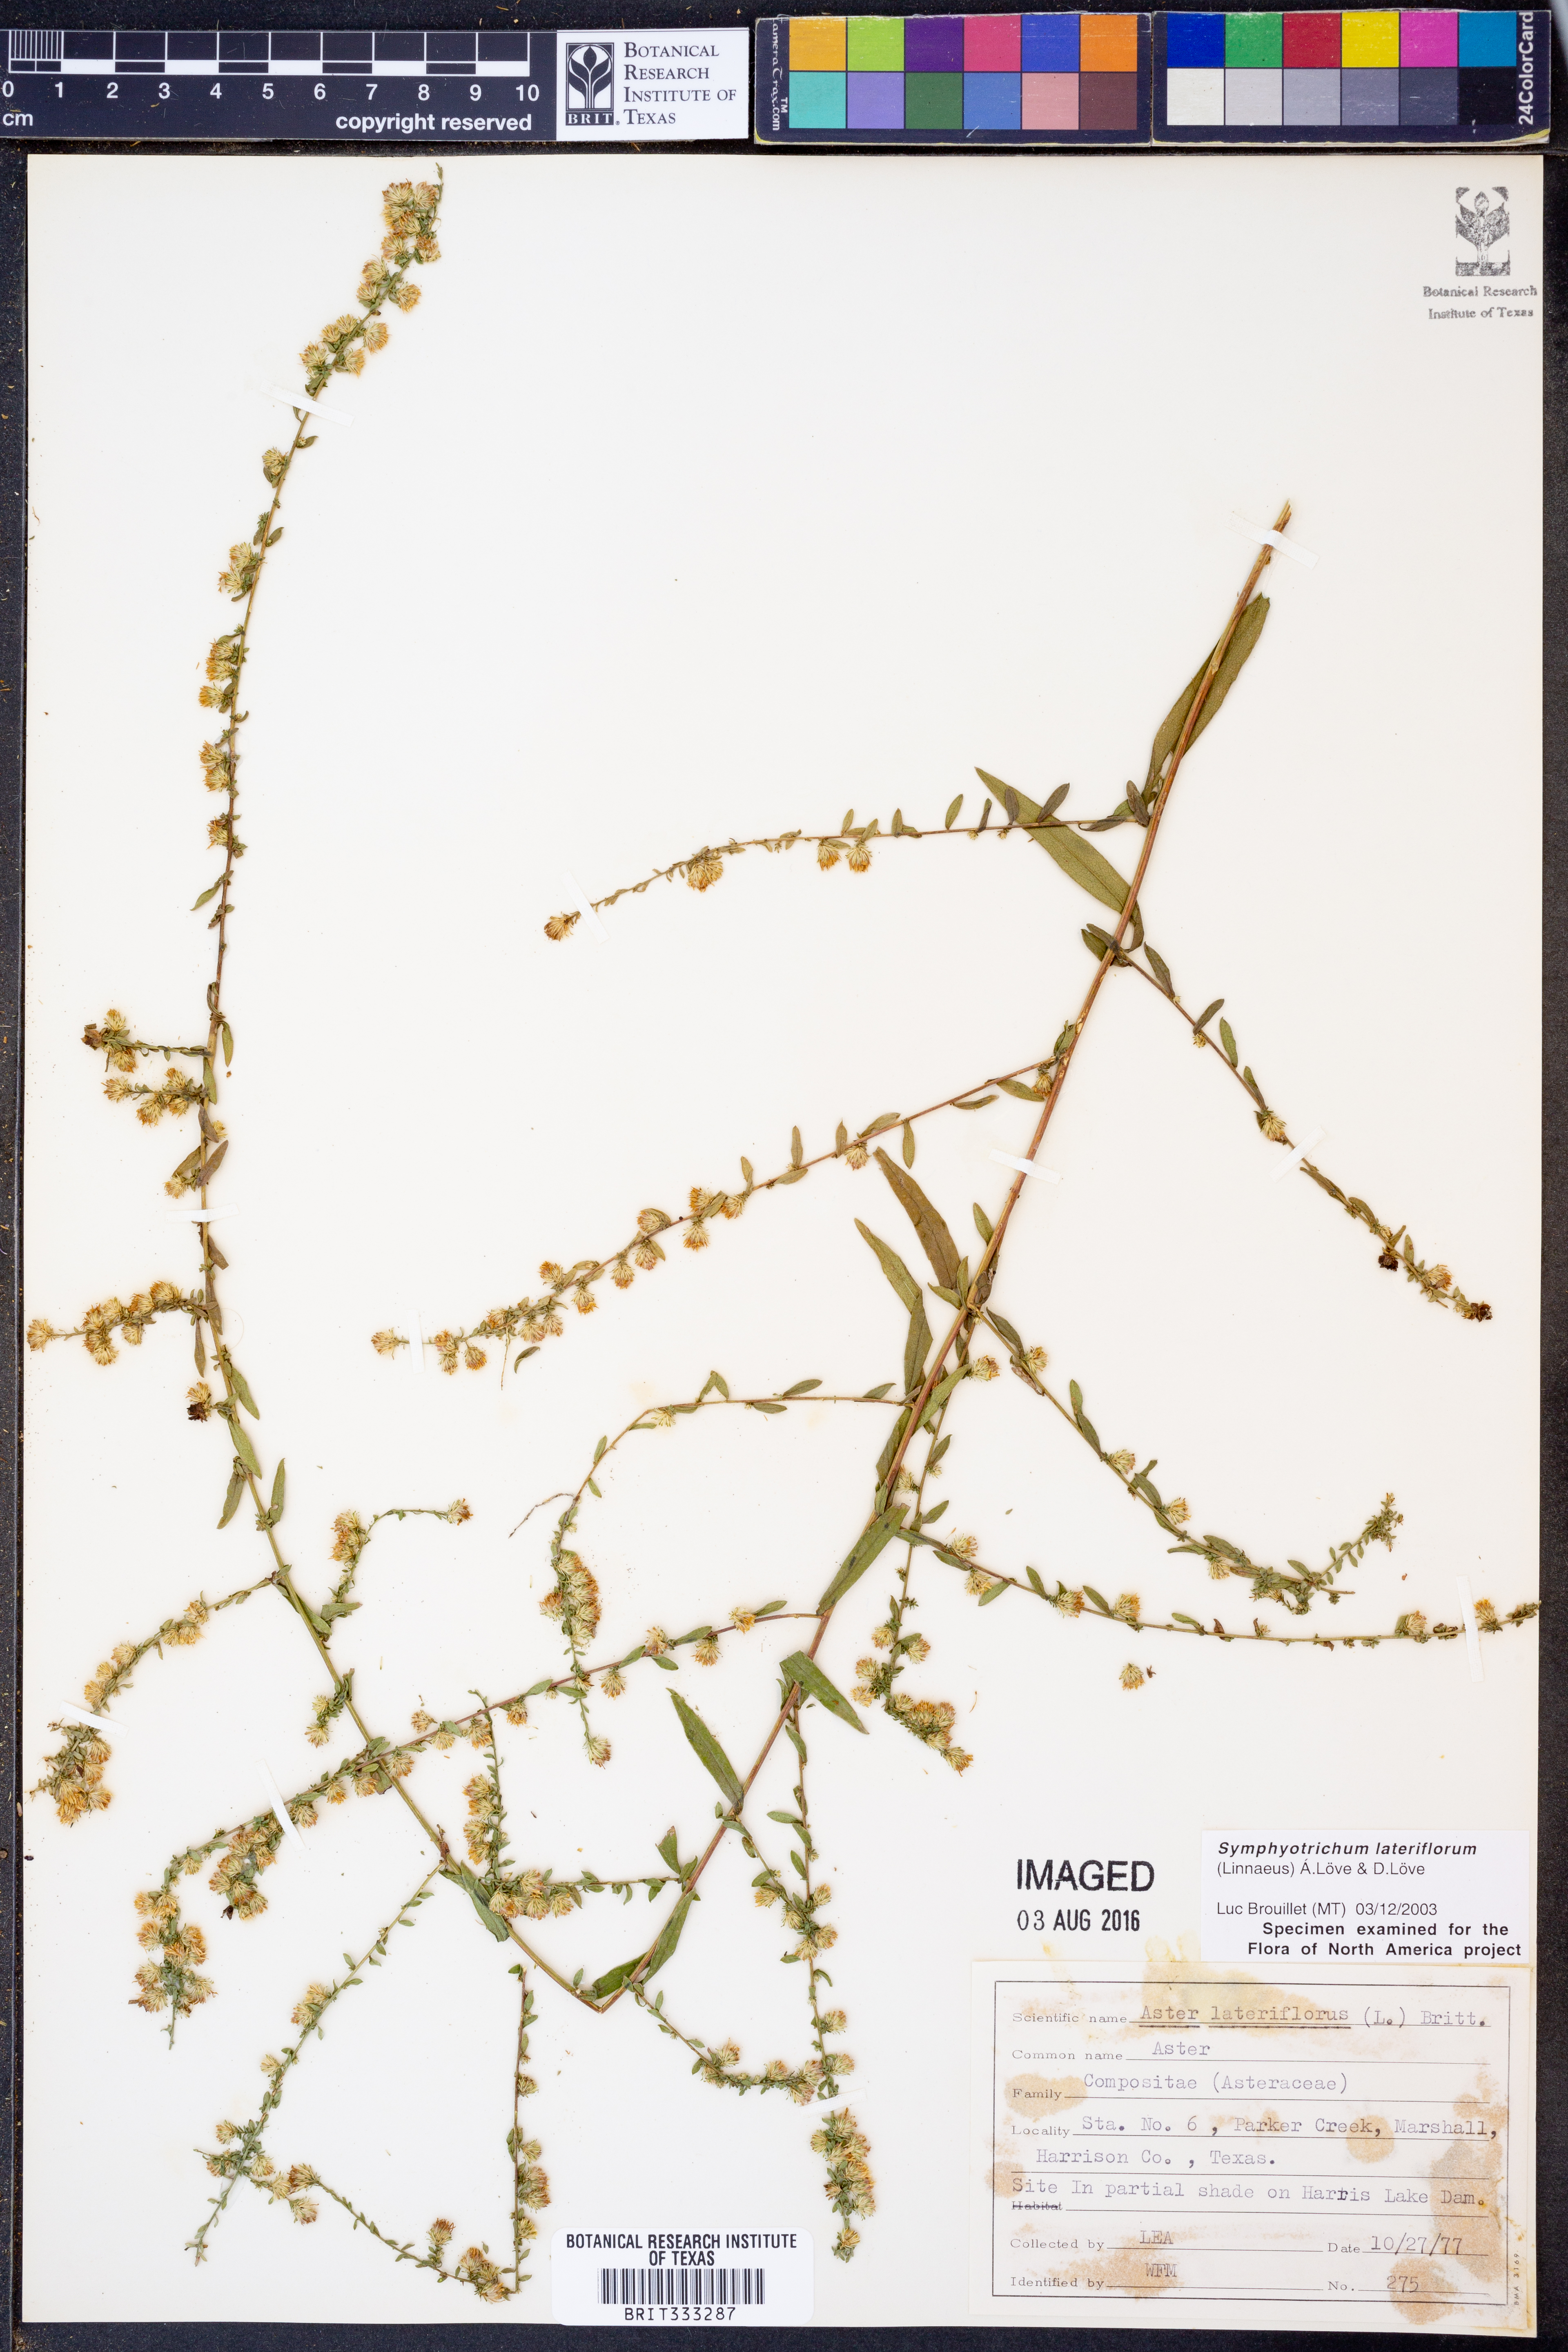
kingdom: Plantae
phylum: Tracheophyta
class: Magnoliopsida
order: Asterales
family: Asteraceae
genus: Symphyotrichum
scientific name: Symphyotrichum lateriflorum
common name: Calico aster
